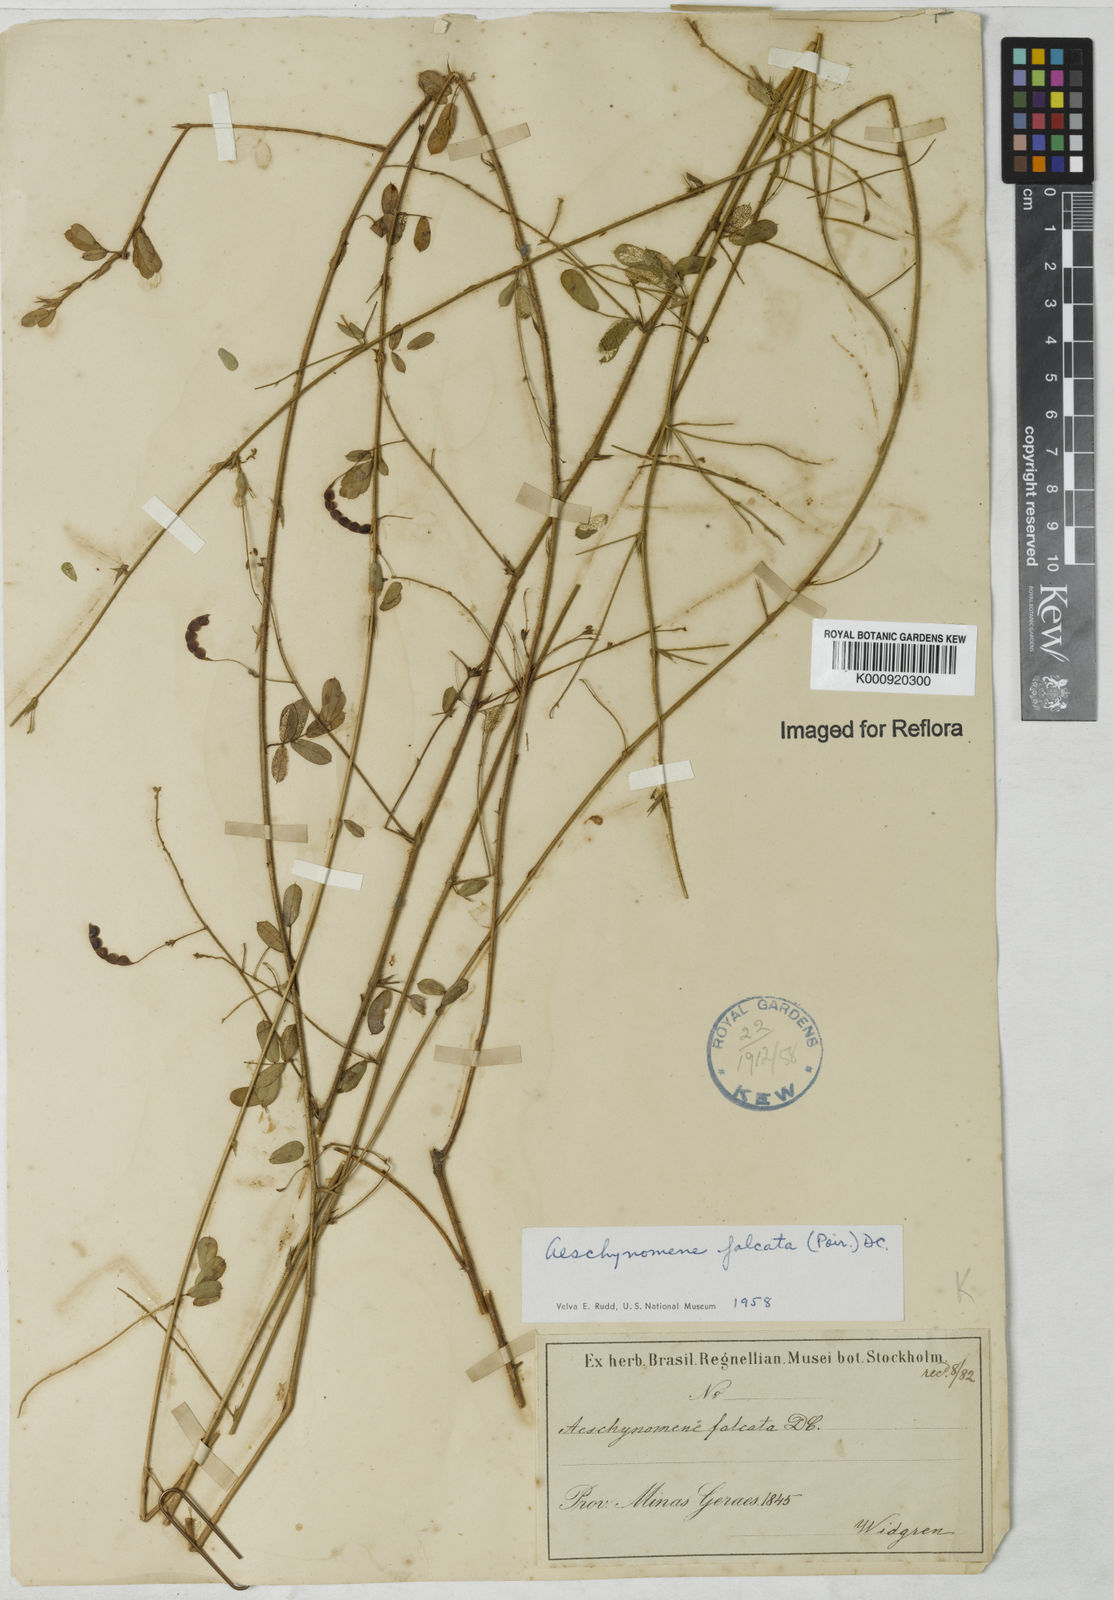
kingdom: Plantae
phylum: Tracheophyta
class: Magnoliopsida
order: Fabales
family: Fabaceae
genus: Aeschynomene
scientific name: Aeschynomene
